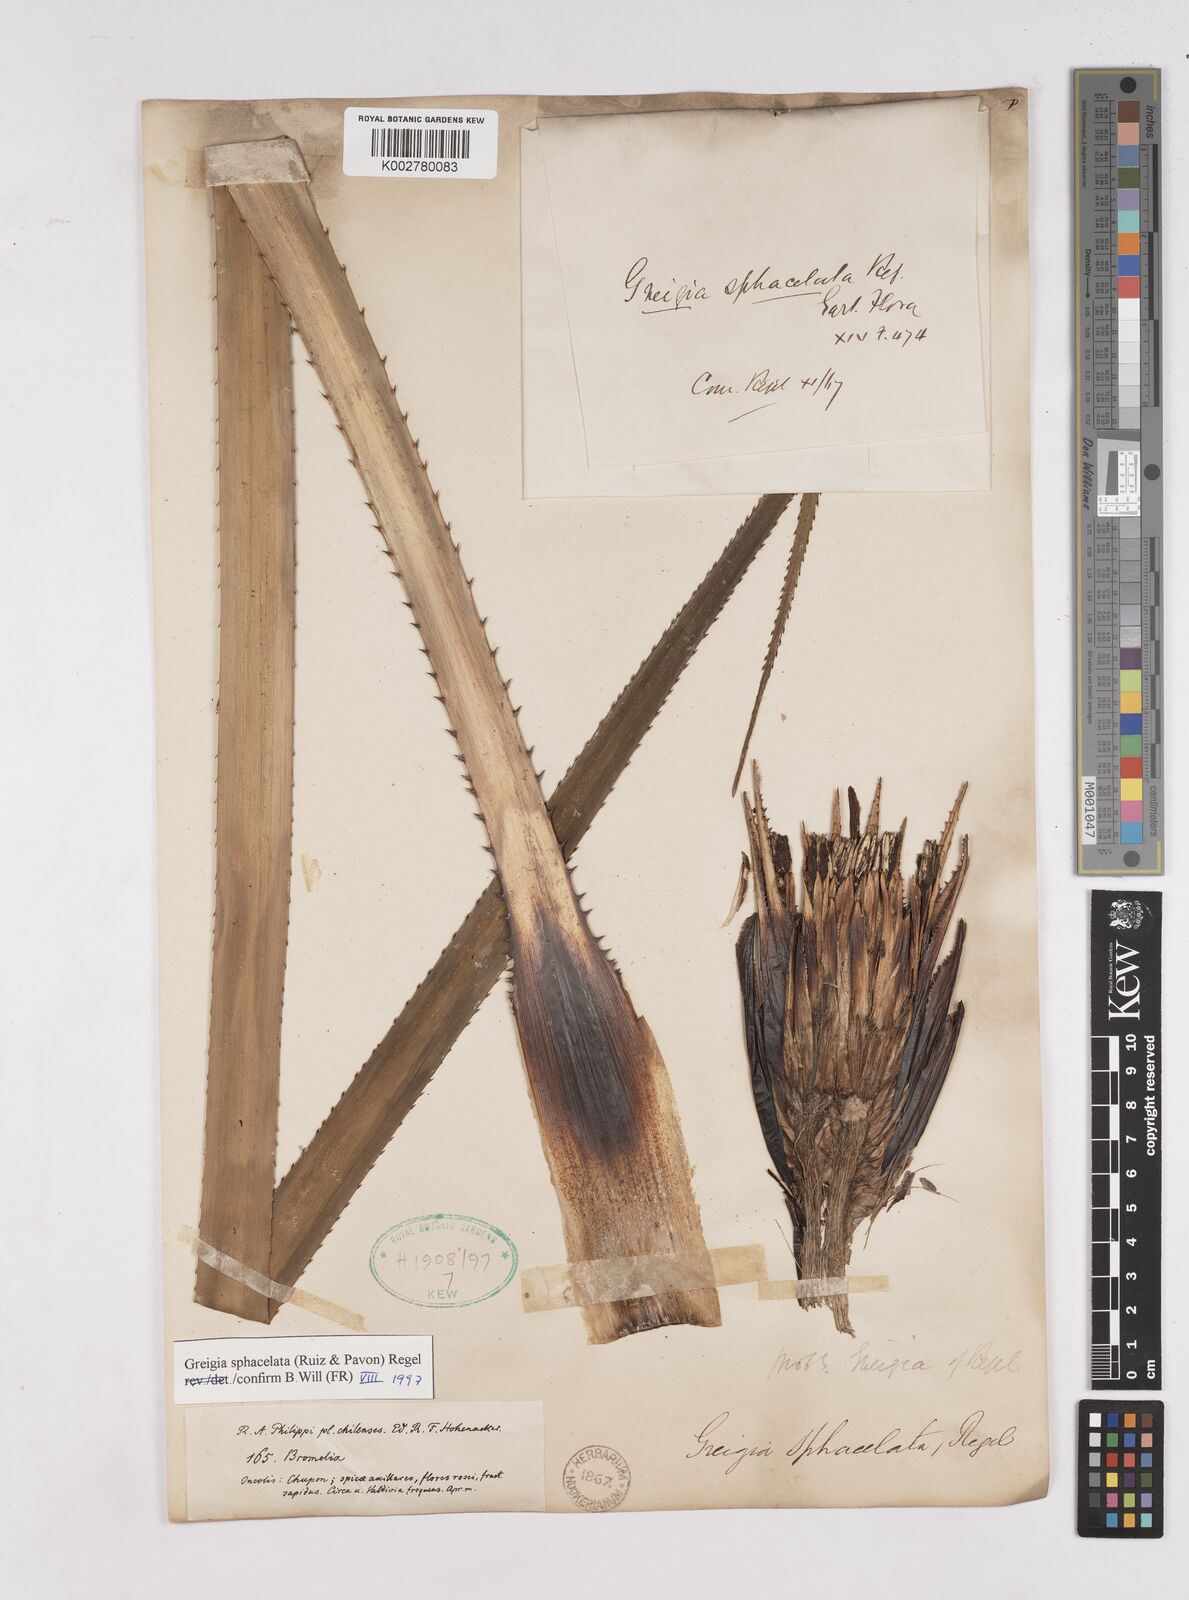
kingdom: Plantae
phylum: Tracheophyta
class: Liliopsida
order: Poales
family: Bromeliaceae
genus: Greigia
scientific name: Greigia sphacelata
